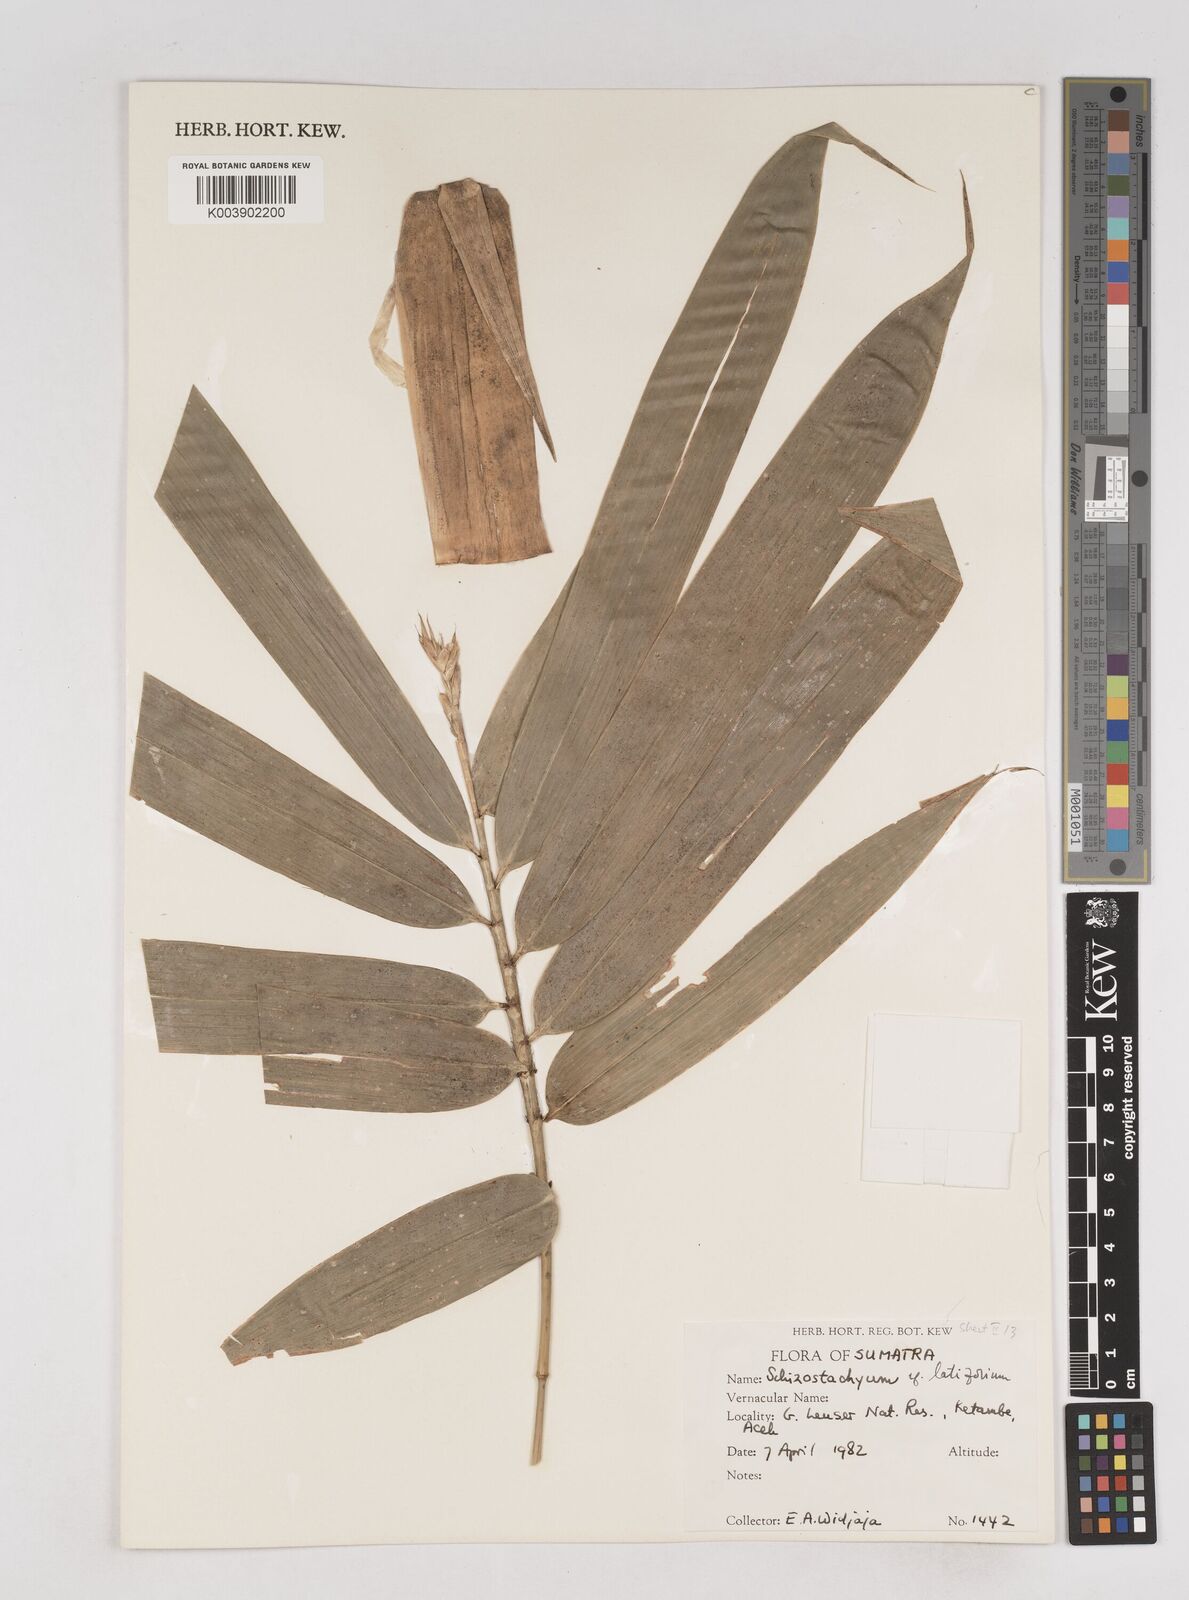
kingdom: Plantae
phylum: Tracheophyta
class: Liliopsida
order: Poales
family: Poaceae
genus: Schizostachyum
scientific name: Schizostachyum latifolium
